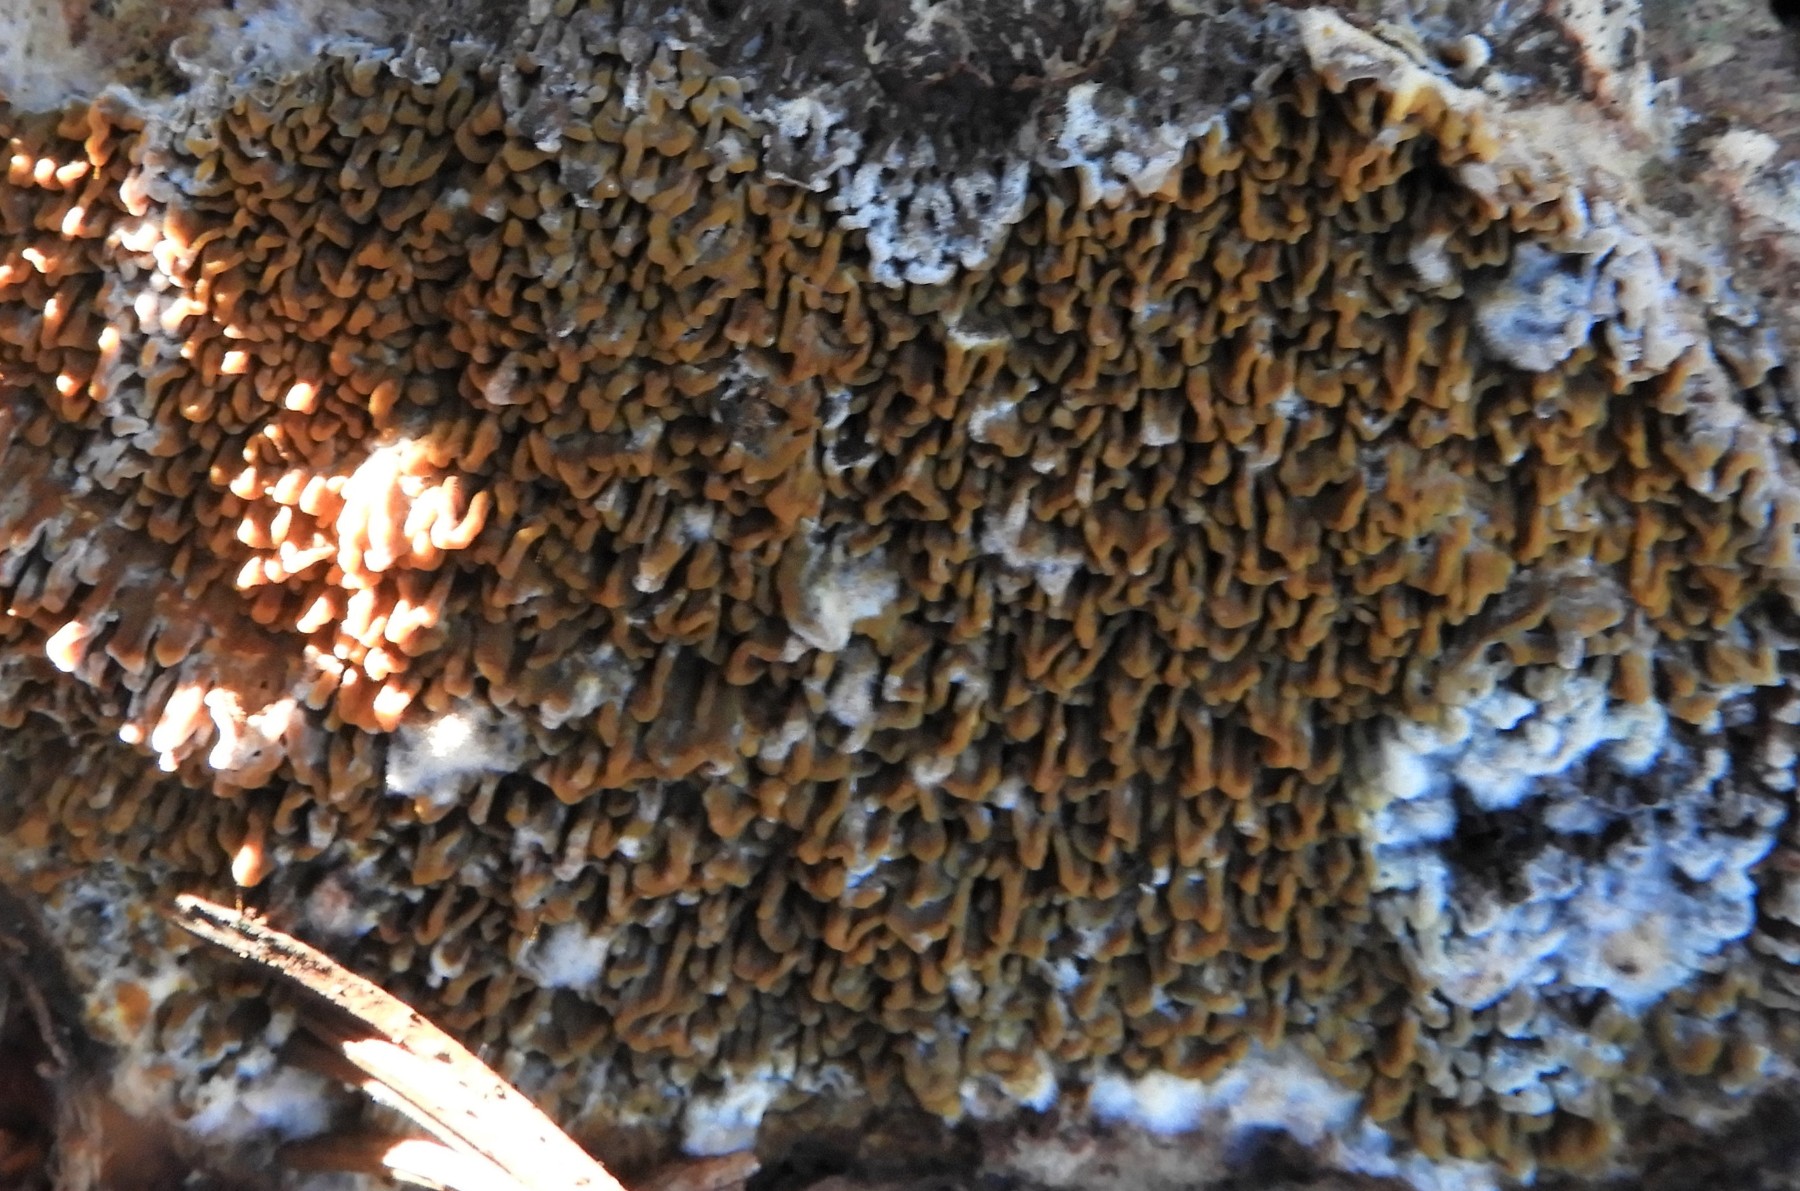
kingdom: Fungi
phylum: Basidiomycota
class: Agaricomycetes
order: Boletales
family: Serpulaceae
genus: Serpula
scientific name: Serpula himantioides
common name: tyndkødet hussvamp
